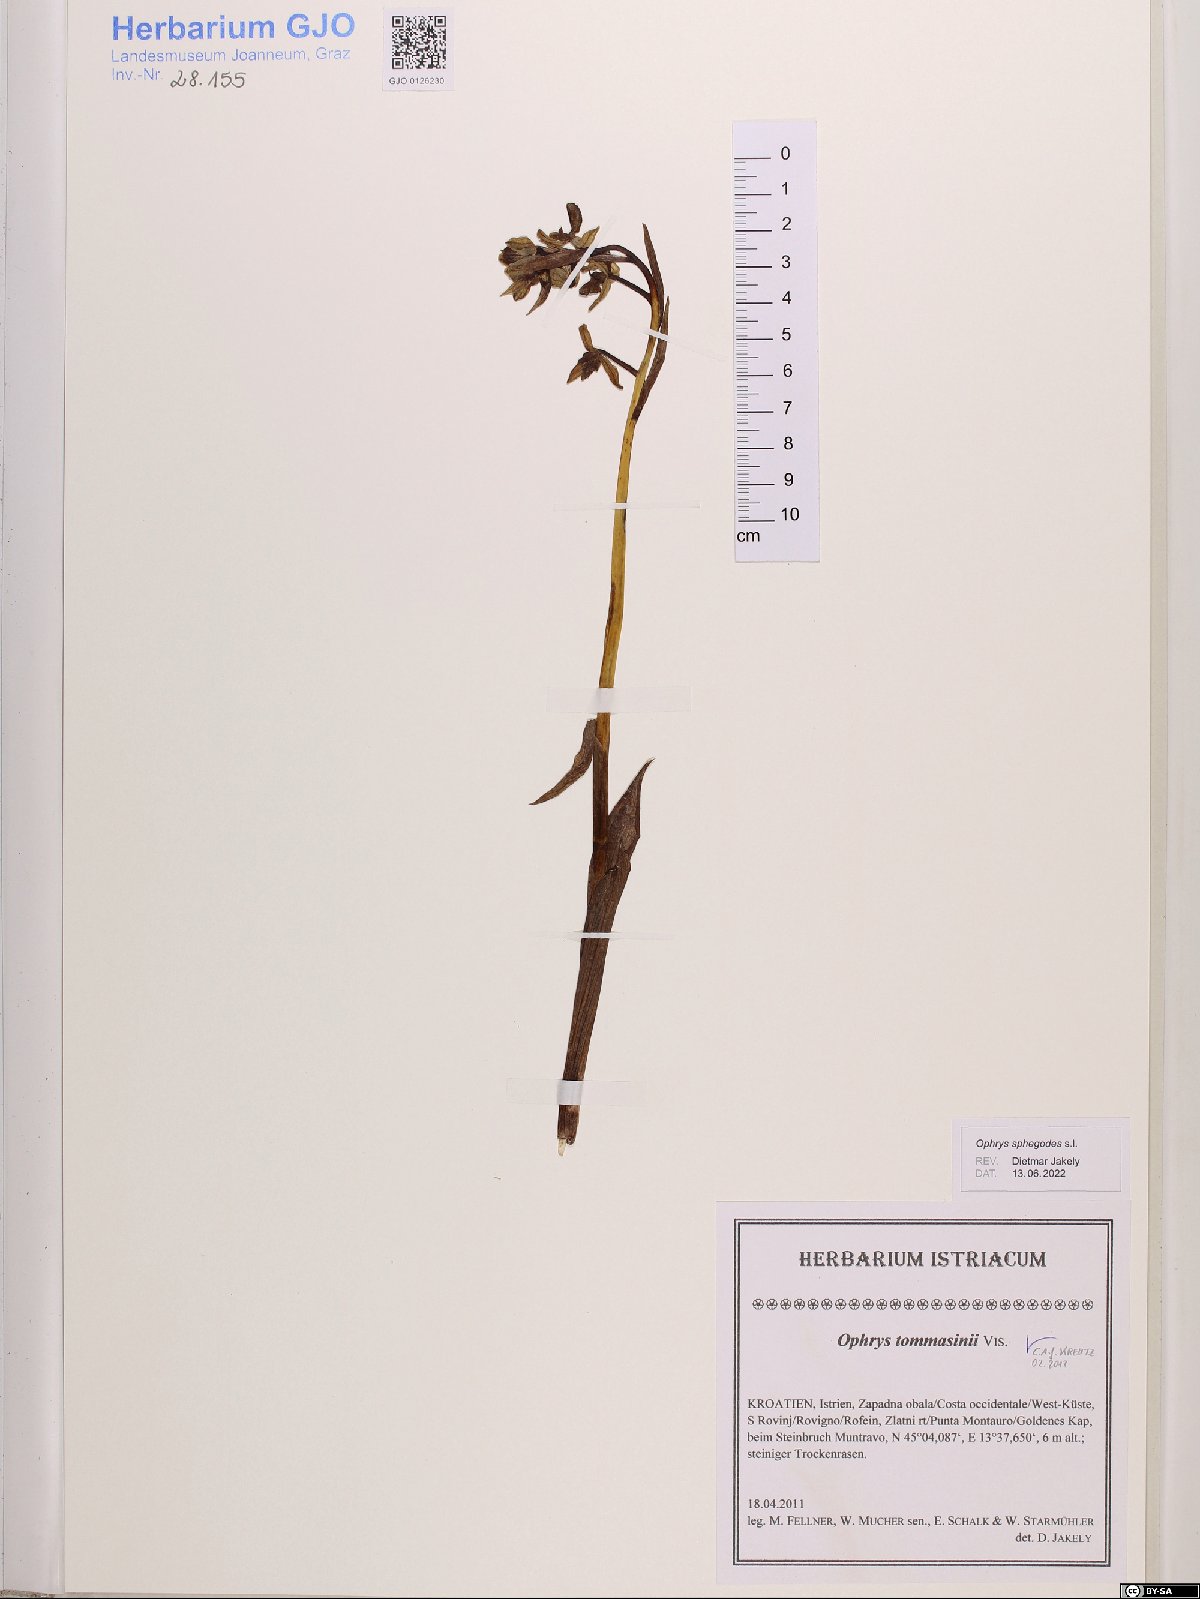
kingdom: Plantae
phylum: Tracheophyta
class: Liliopsida
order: Asparagales
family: Orchidaceae
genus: Ophrys
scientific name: Ophrys sphegodes
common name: Early spider-orchid
